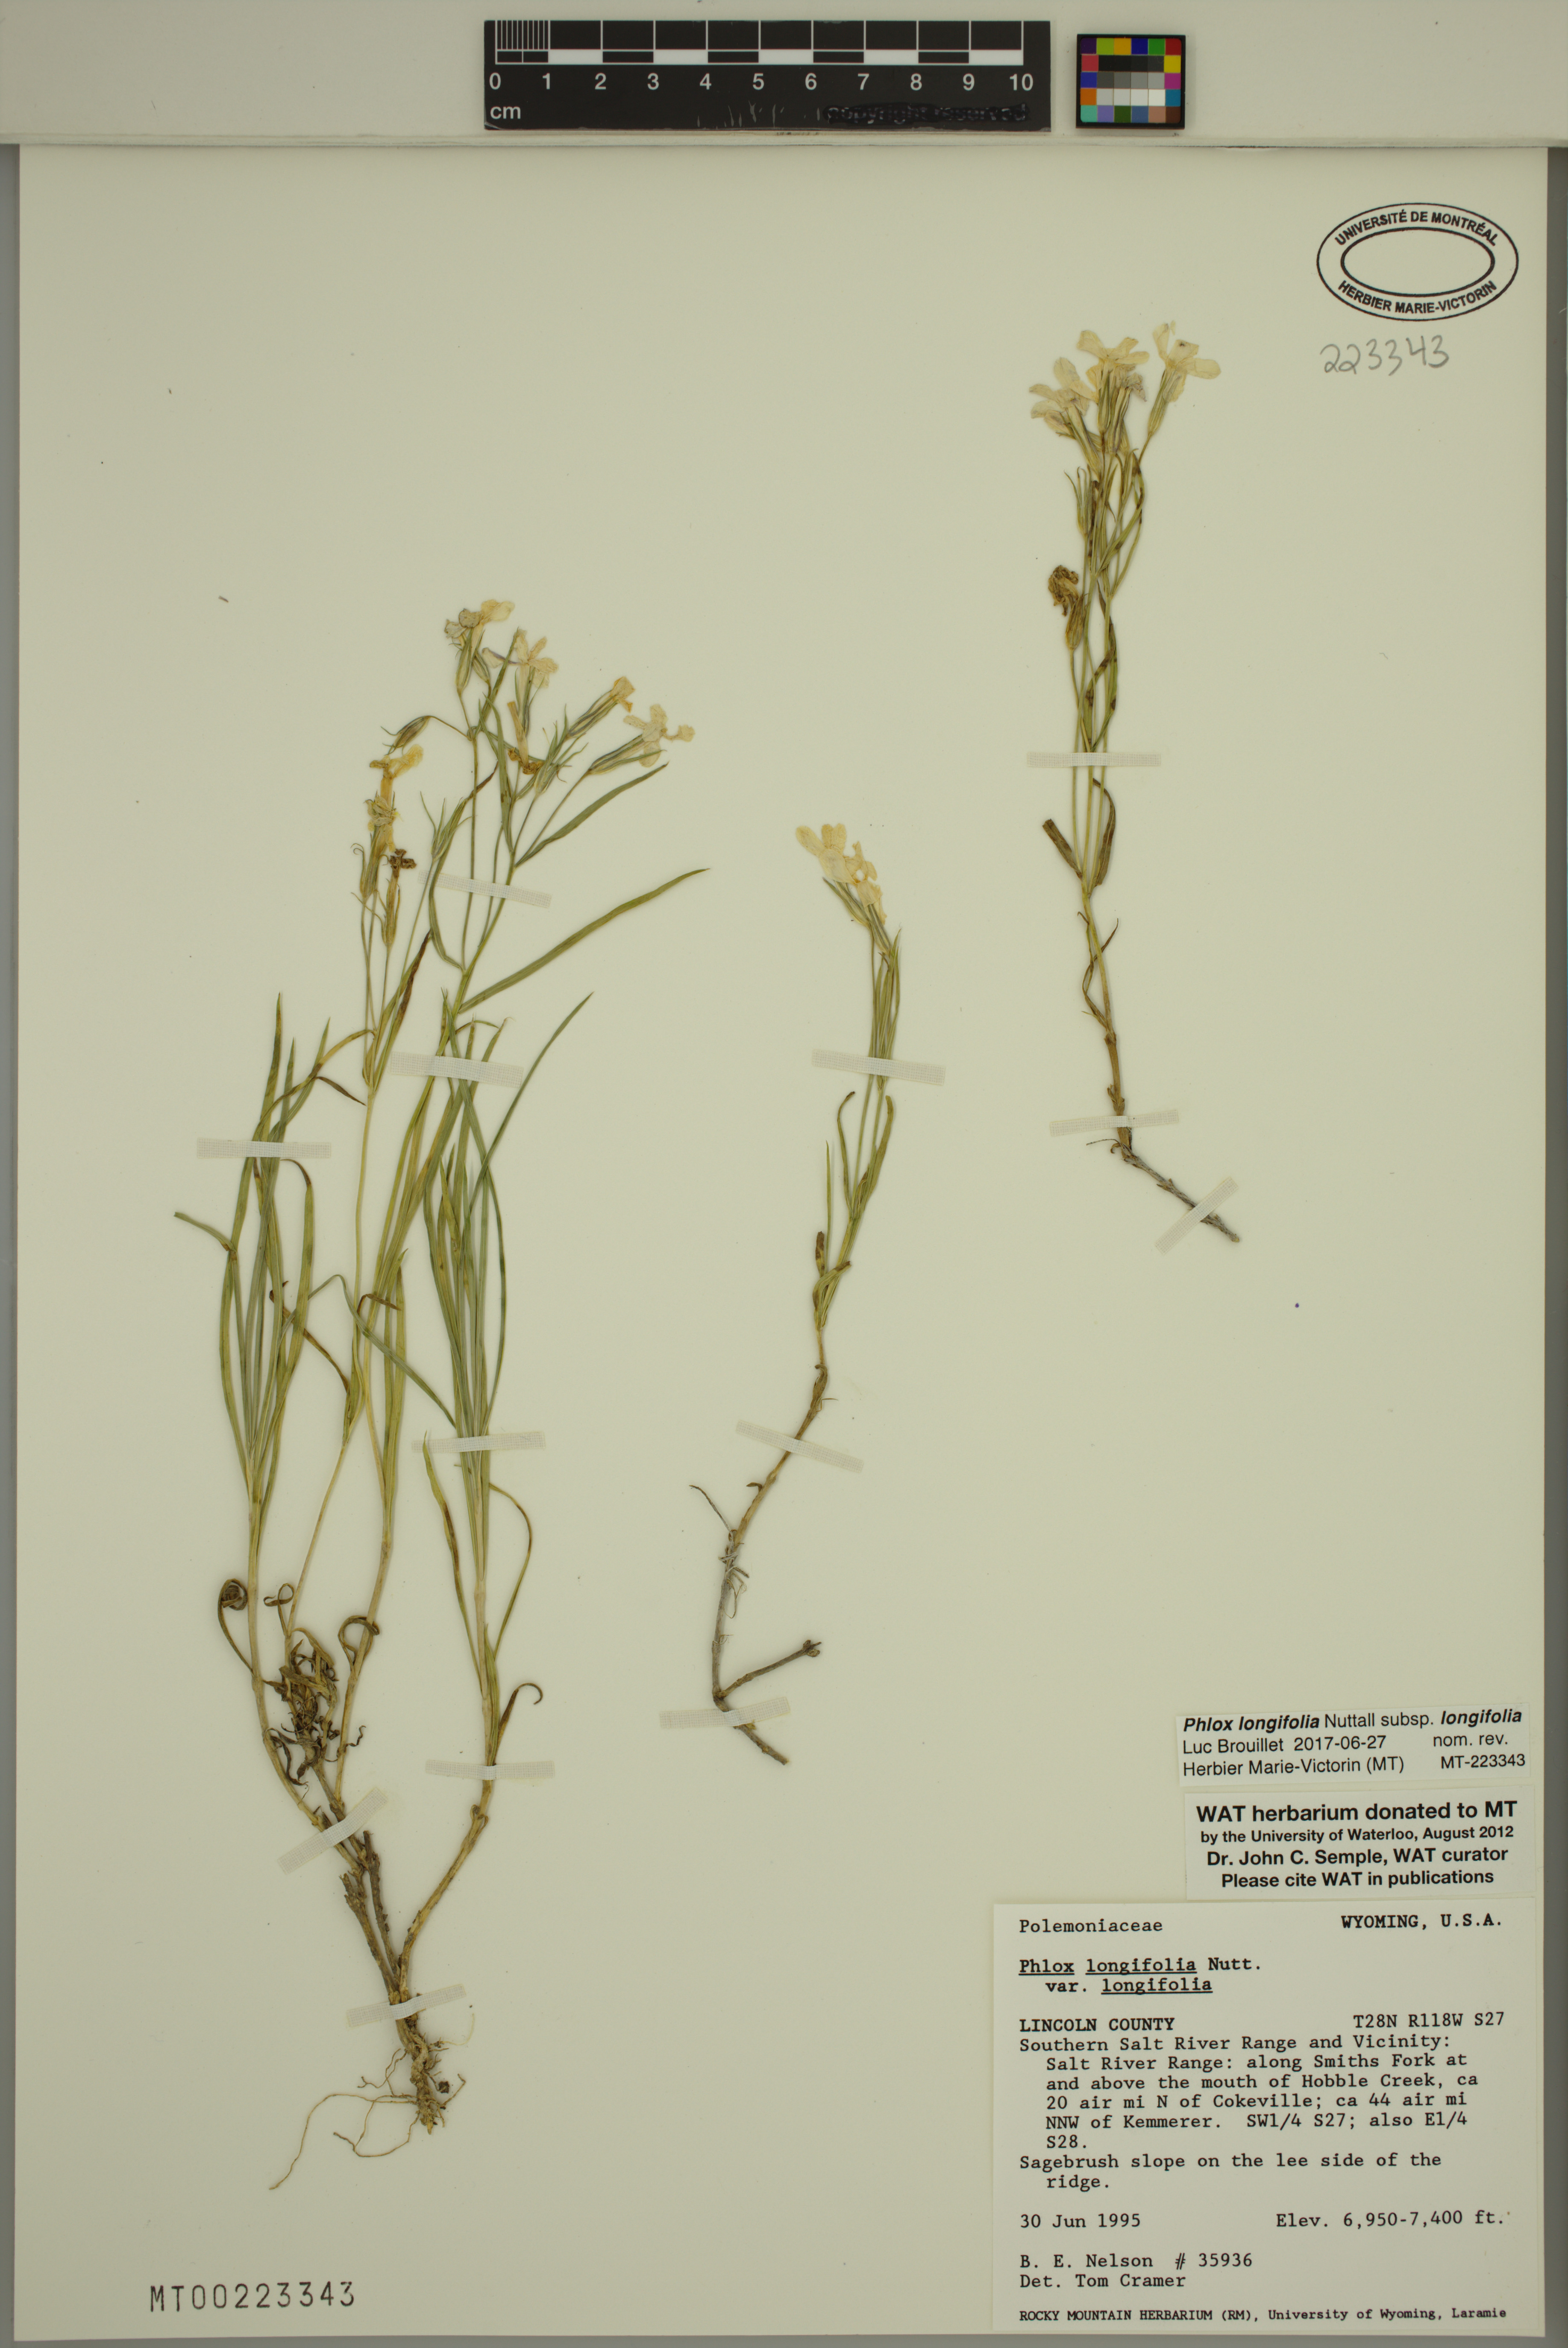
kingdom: Plantae
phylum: Tracheophyta
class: Magnoliopsida
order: Ericales
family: Polemoniaceae
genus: Phlox
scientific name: Phlox longifolia
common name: Longleaf phlox
